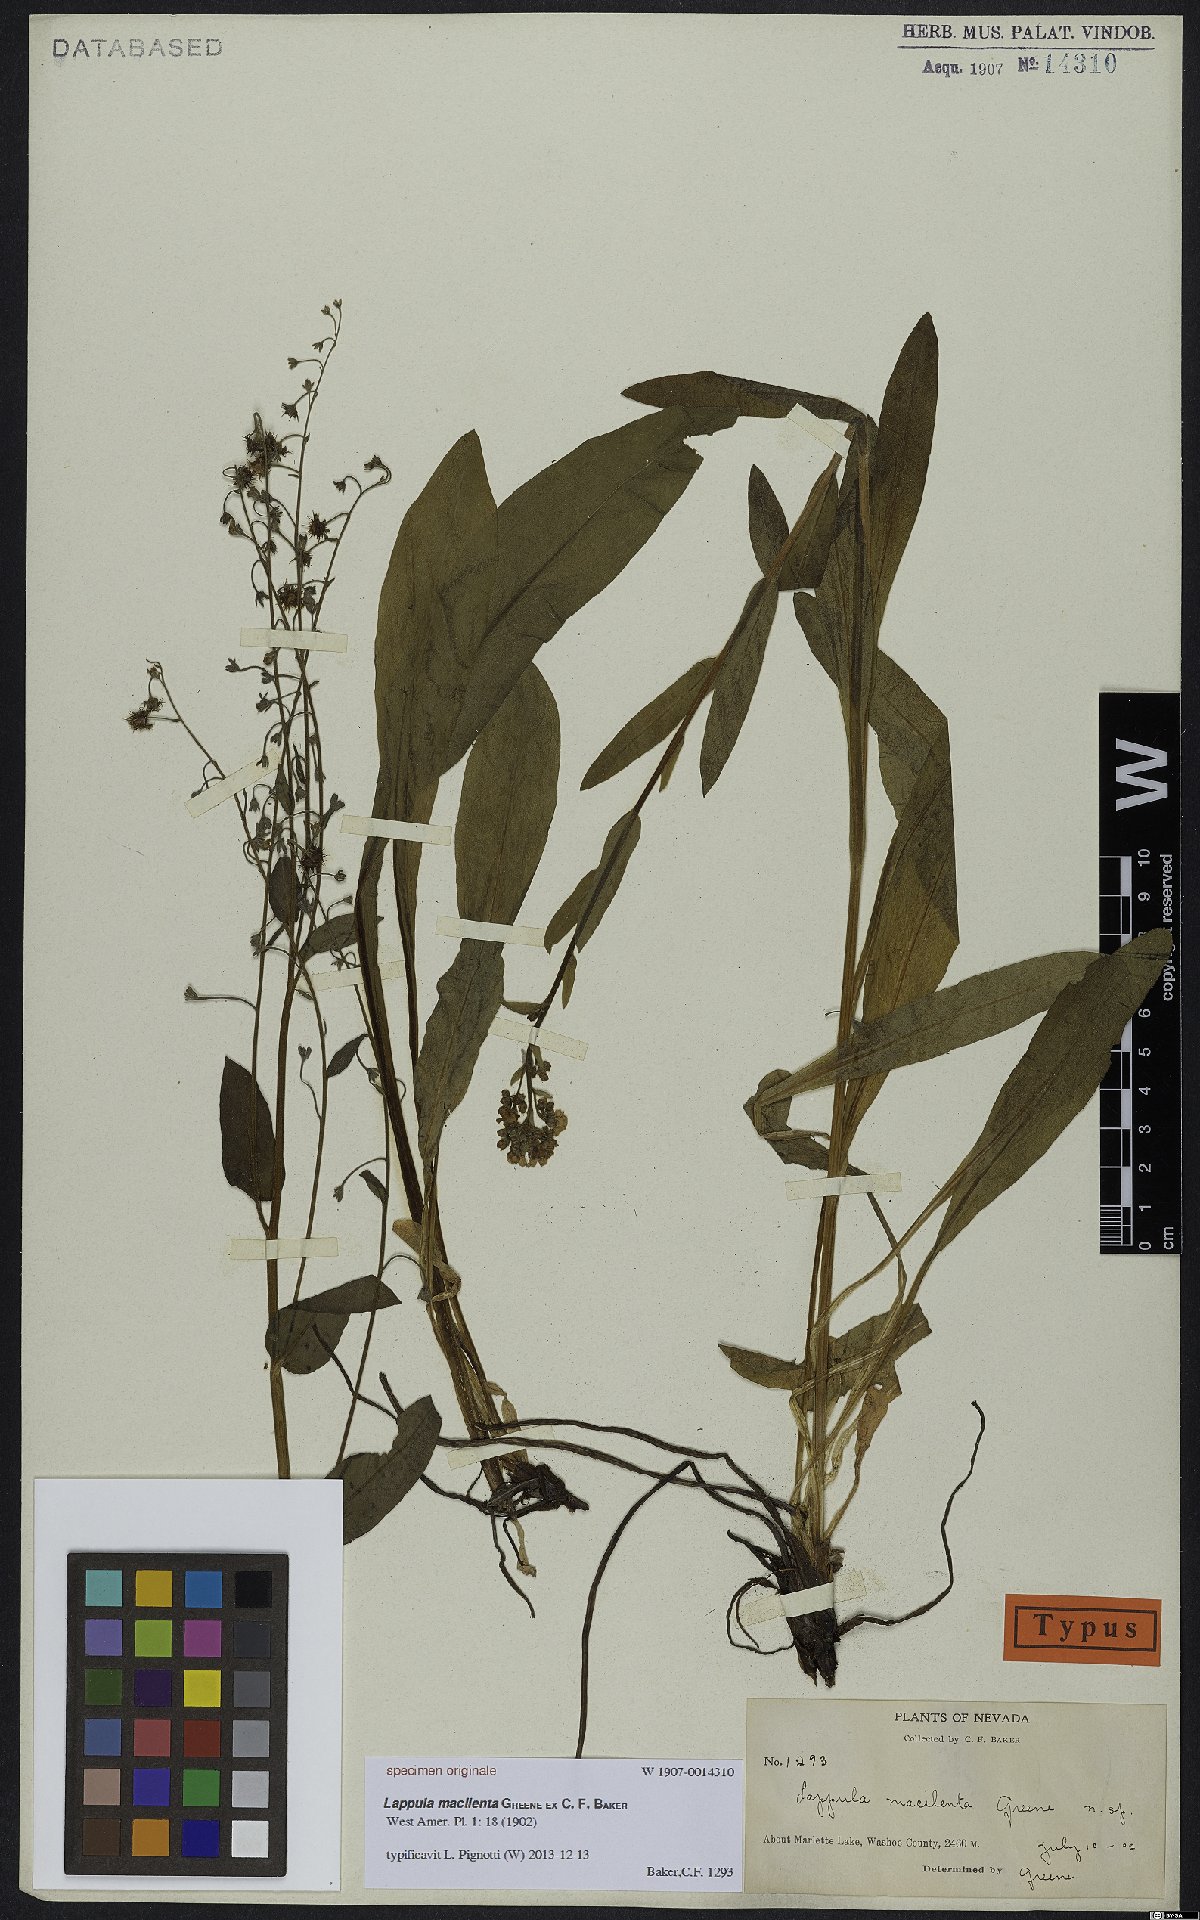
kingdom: Plantae
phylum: Tracheophyta
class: Magnoliopsida
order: Boraginales
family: Boraginaceae
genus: Lappula
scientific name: Lappula
